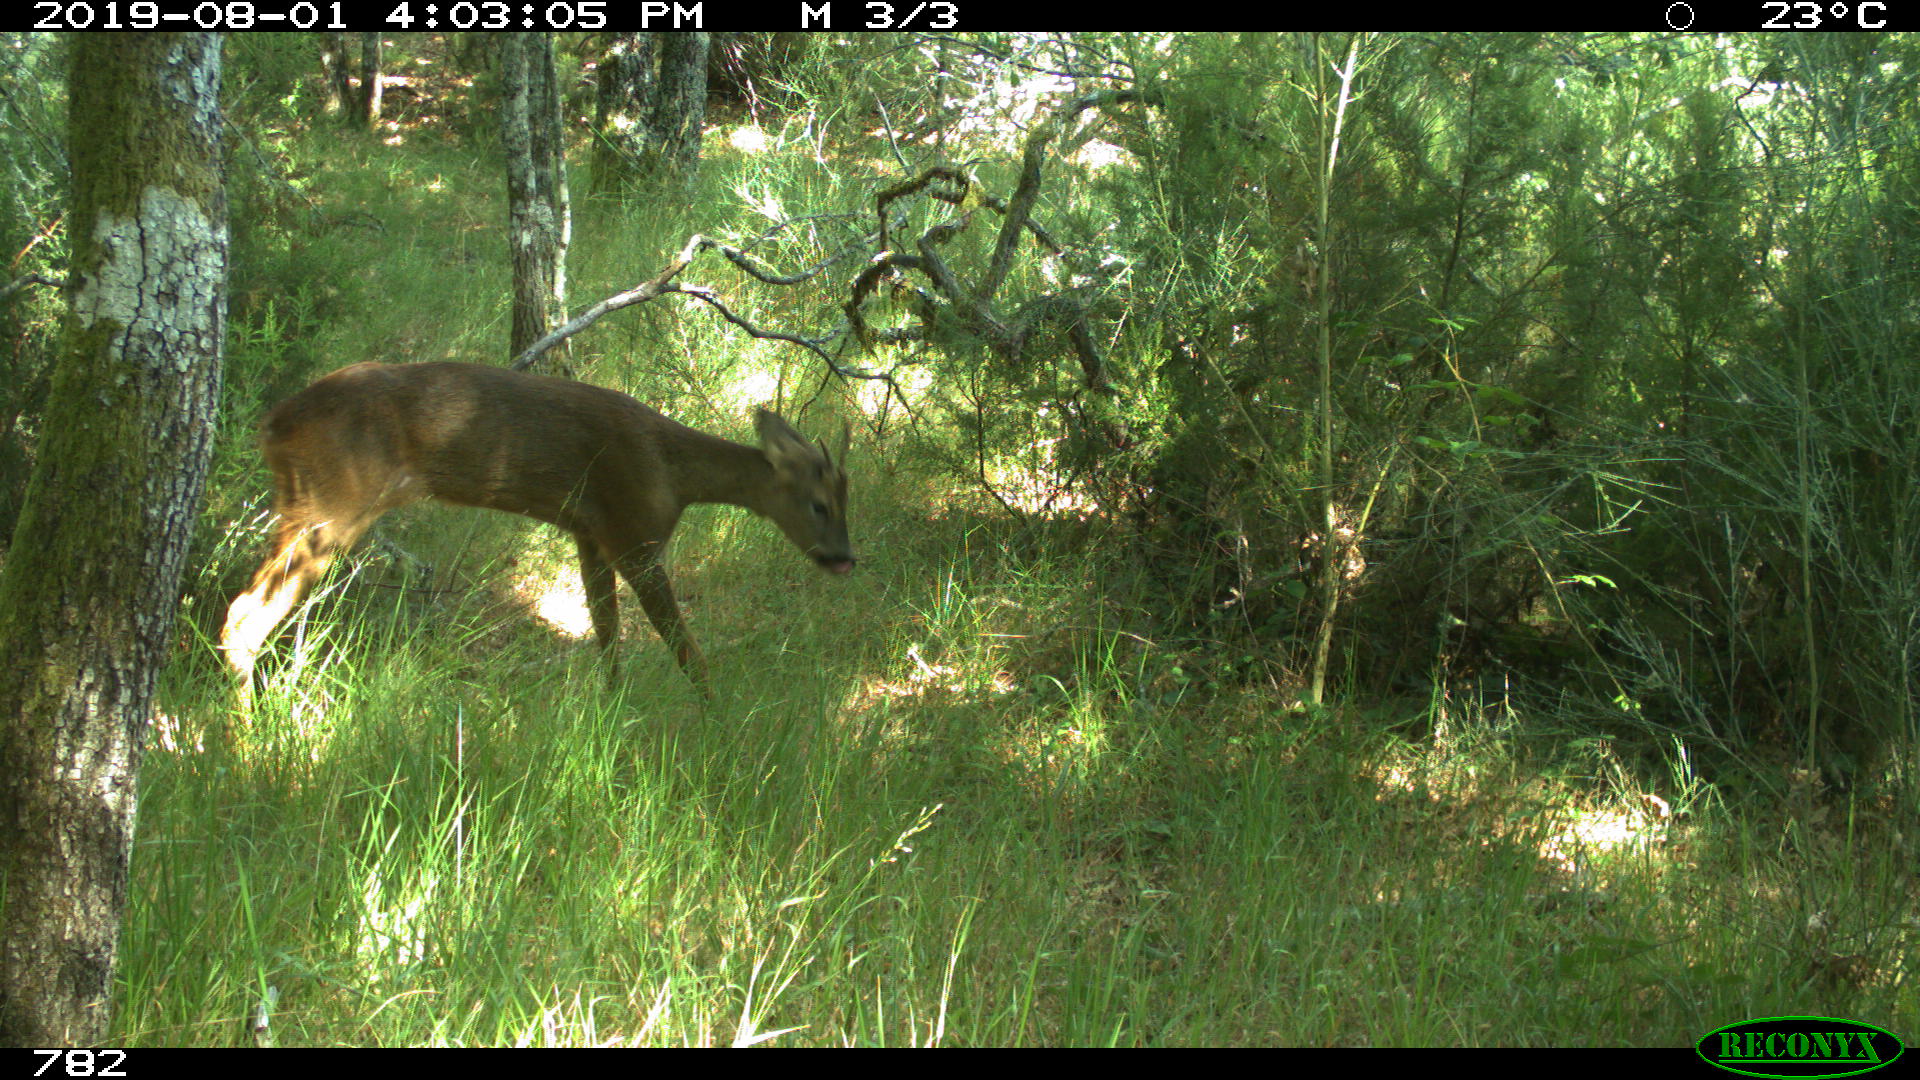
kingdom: Animalia
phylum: Chordata
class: Mammalia
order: Artiodactyla
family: Cervidae
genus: Capreolus
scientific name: Capreolus capreolus
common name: Western roe deer
